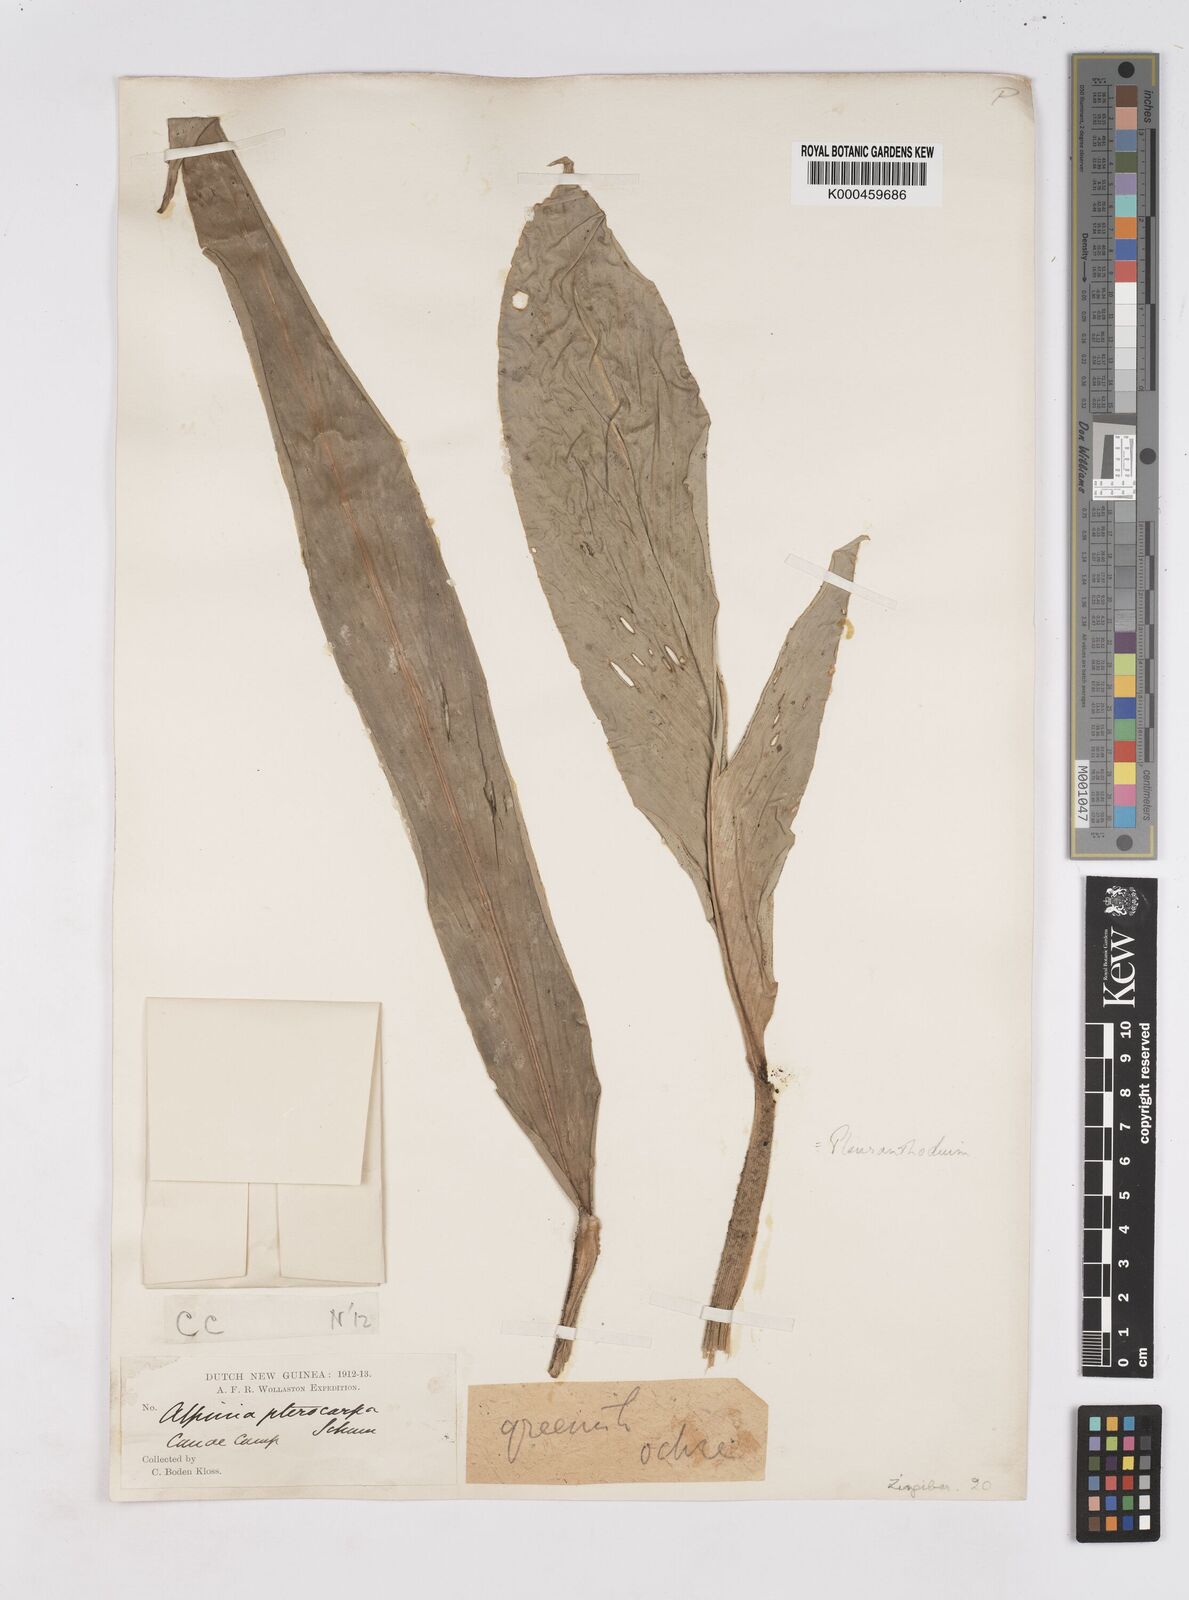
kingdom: Plantae
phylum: Tracheophyta
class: Liliopsida
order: Zingiberales
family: Zingiberaceae
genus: Pleuranthodium
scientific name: Pleuranthodium pterocarpum
